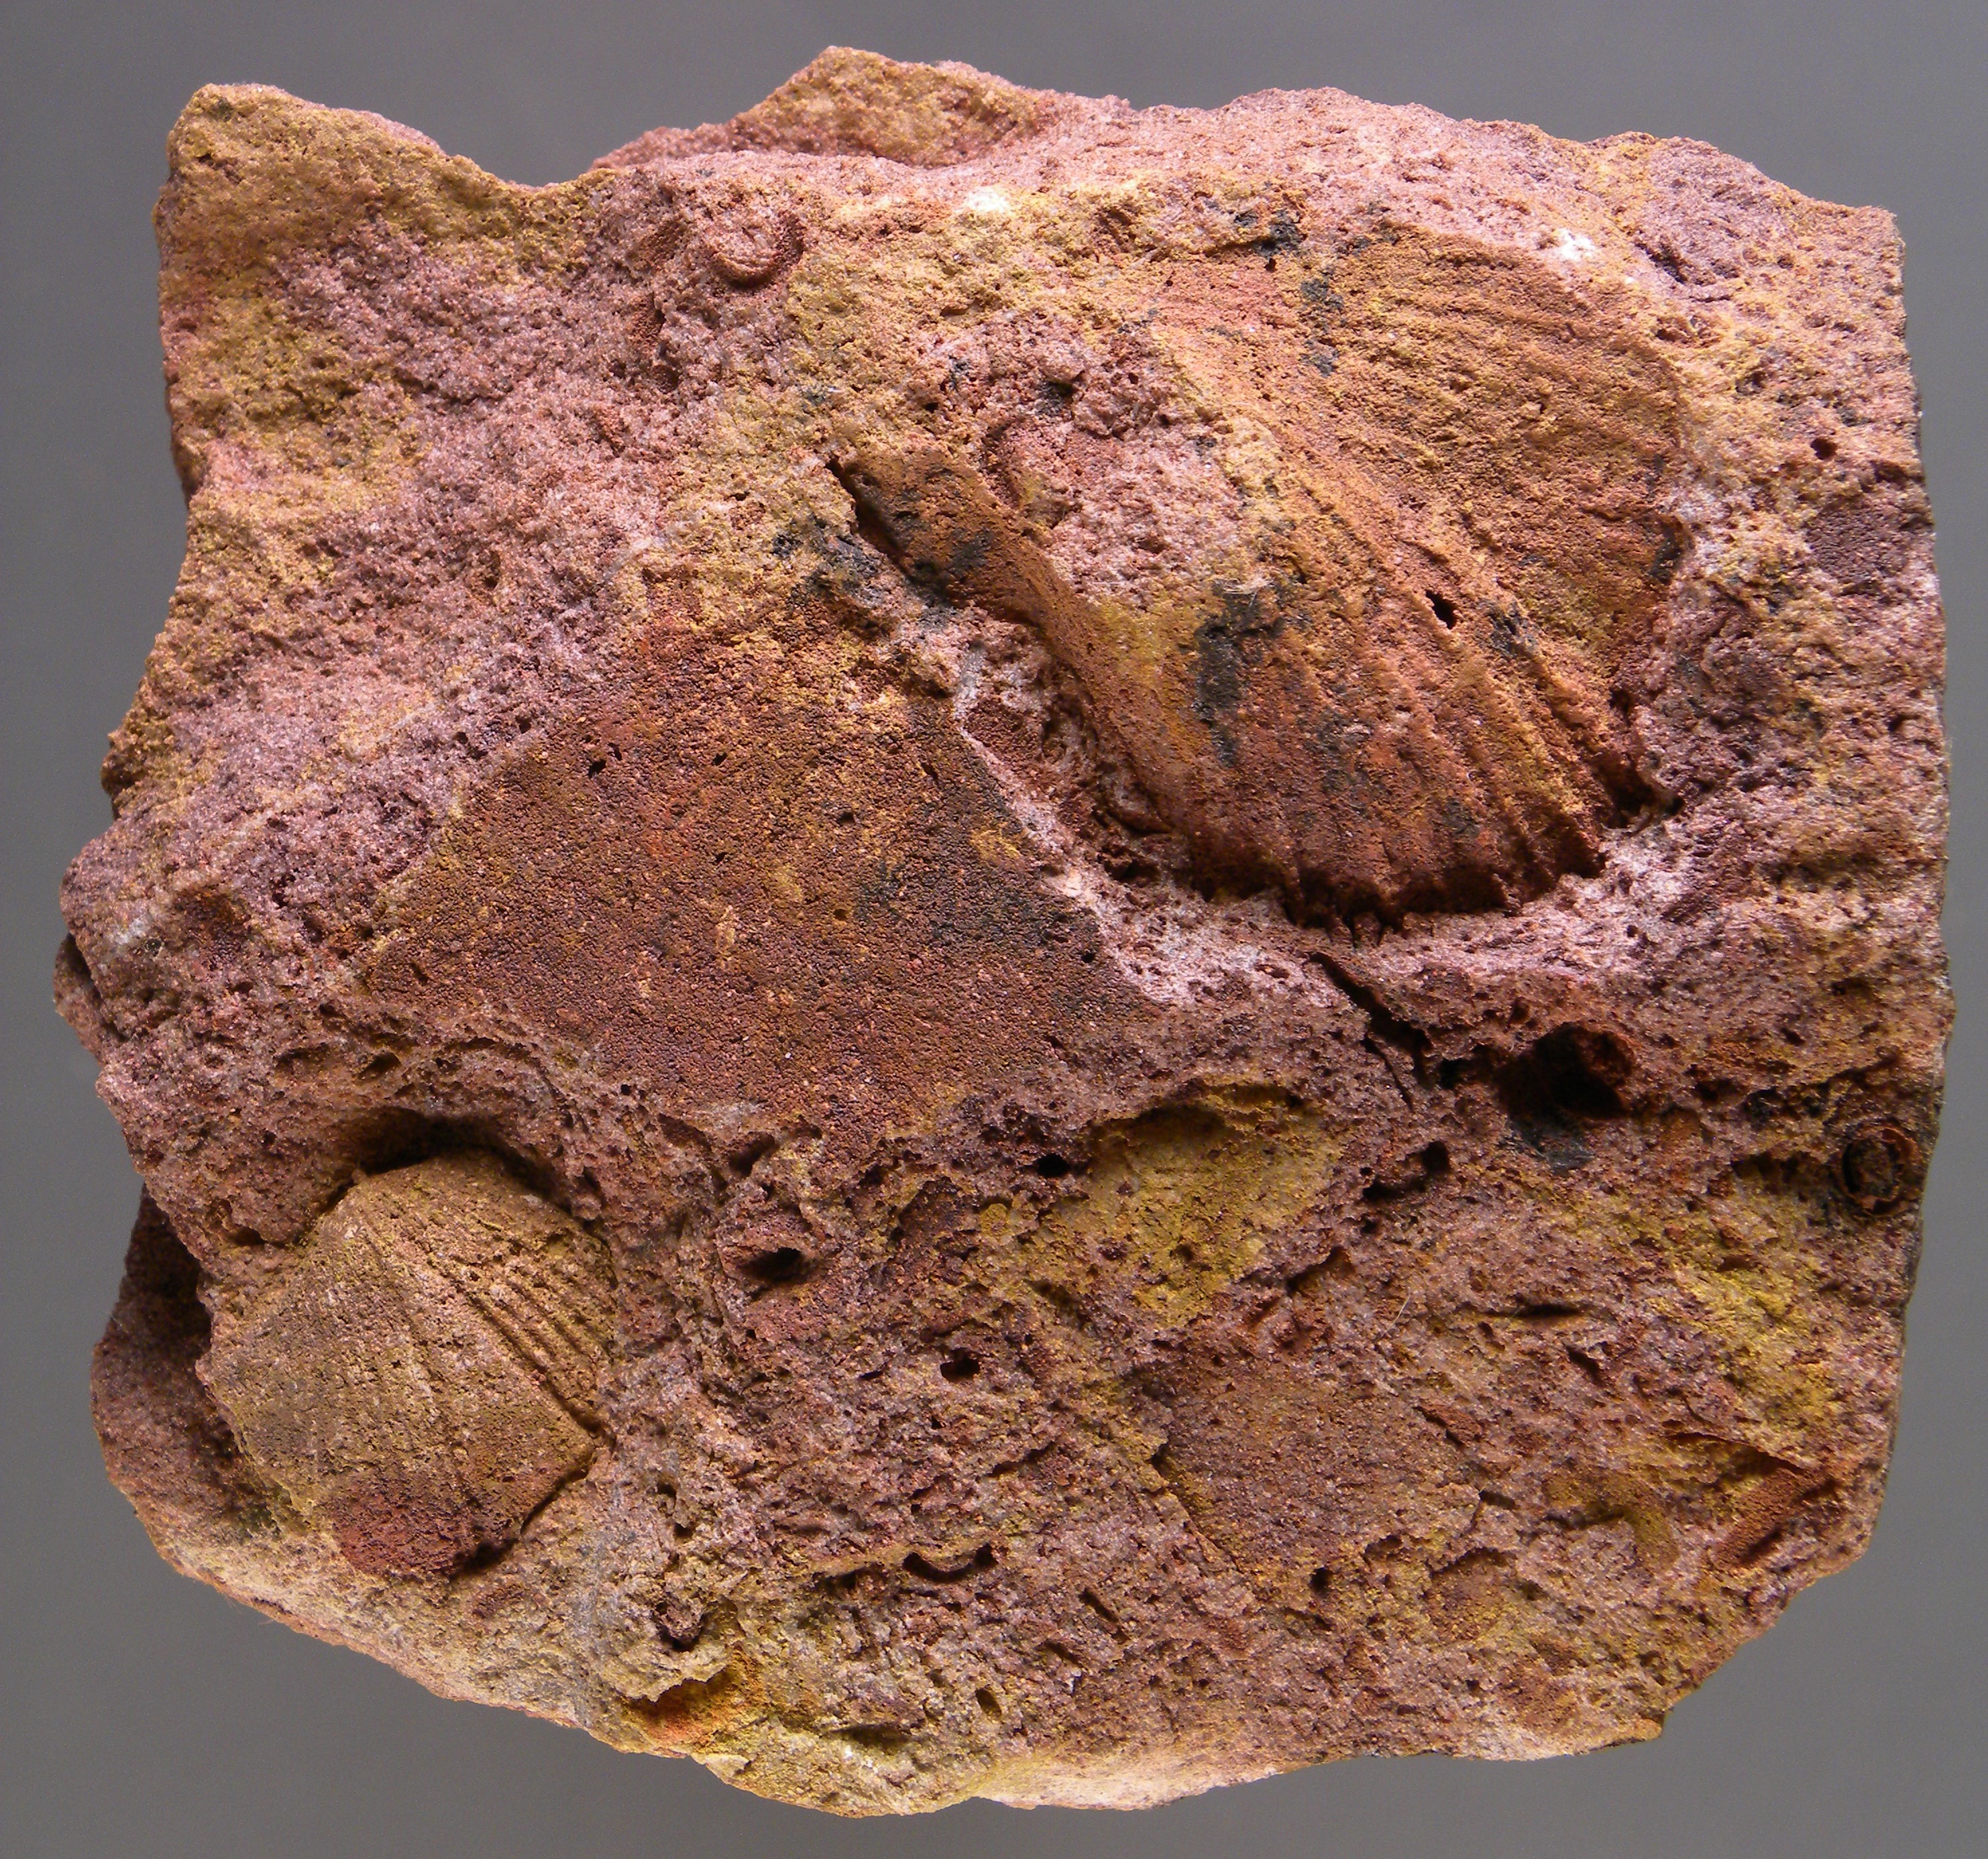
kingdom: Animalia
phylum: Mollusca
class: Bivalvia
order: Ostreida
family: Pterineidae
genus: Ptychopteria
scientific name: Ptychopteria
